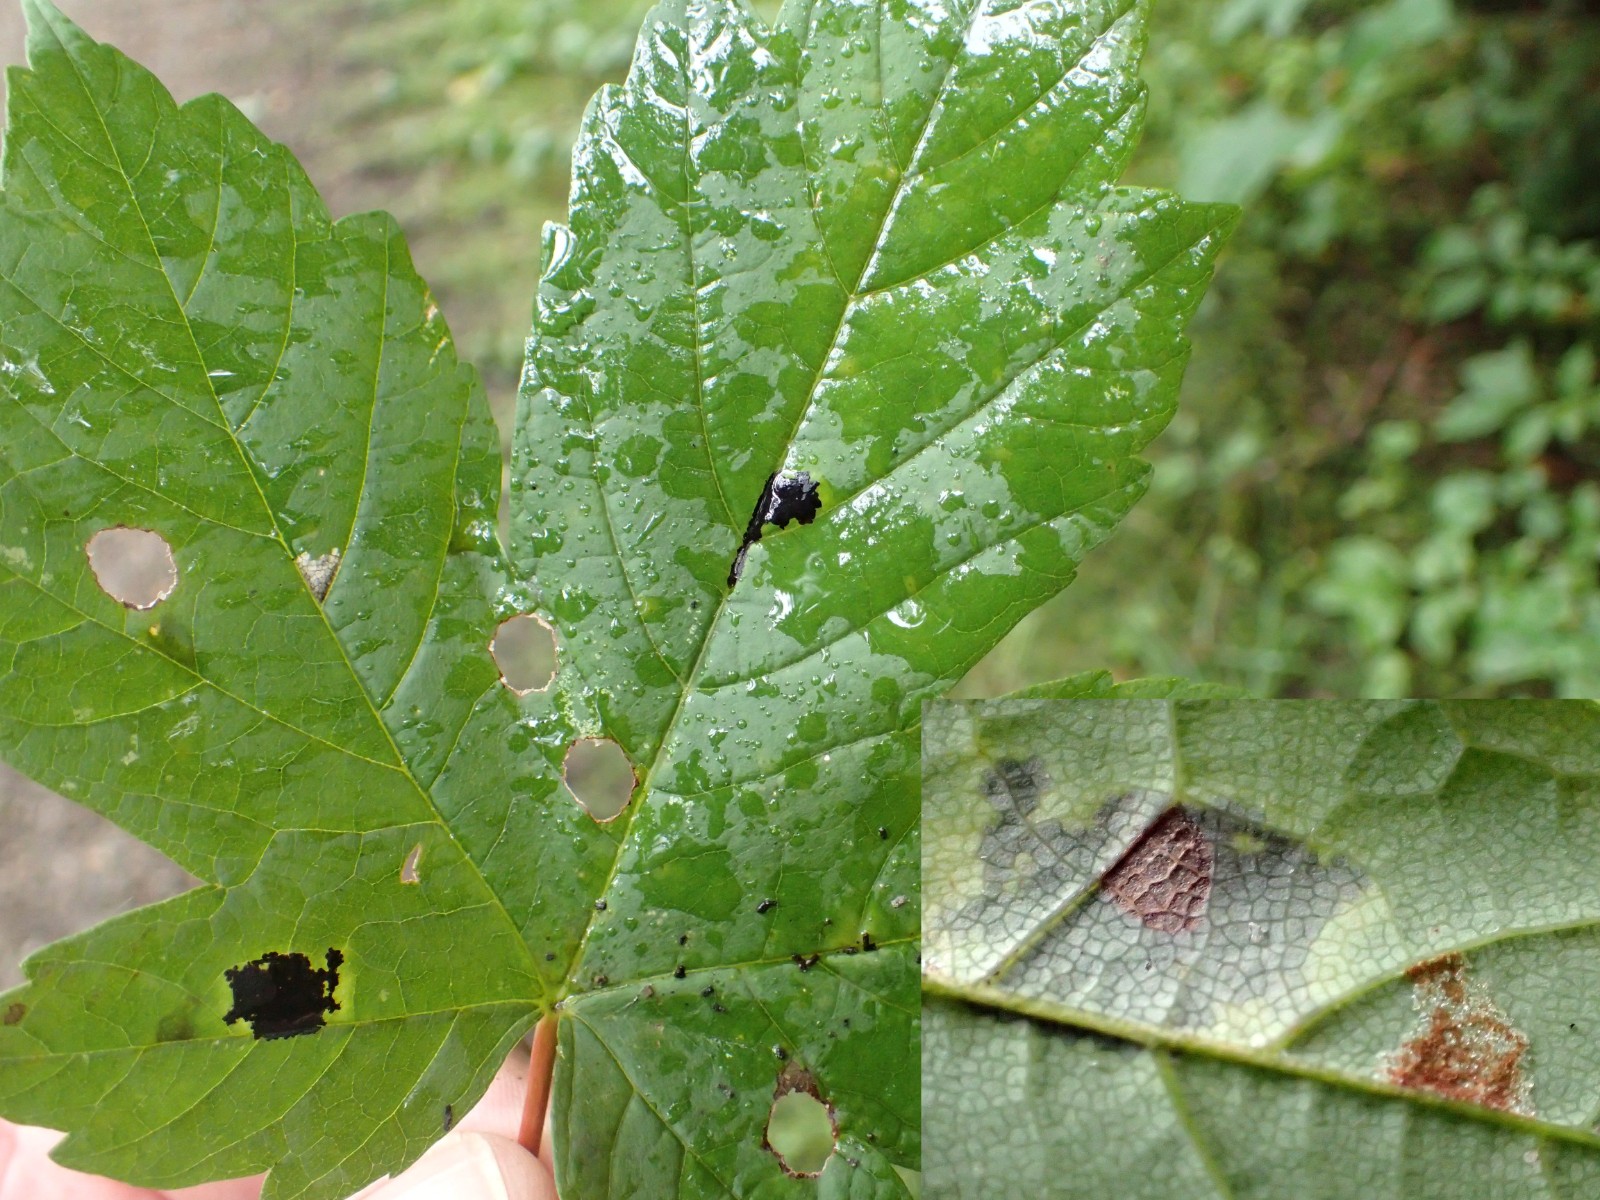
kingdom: Fungi
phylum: Ascomycota
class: Leotiomycetes
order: Rhytismatales
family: Rhytismataceae
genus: Rhytisma
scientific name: Rhytisma acerinum
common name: ahorn-rynkeplet
